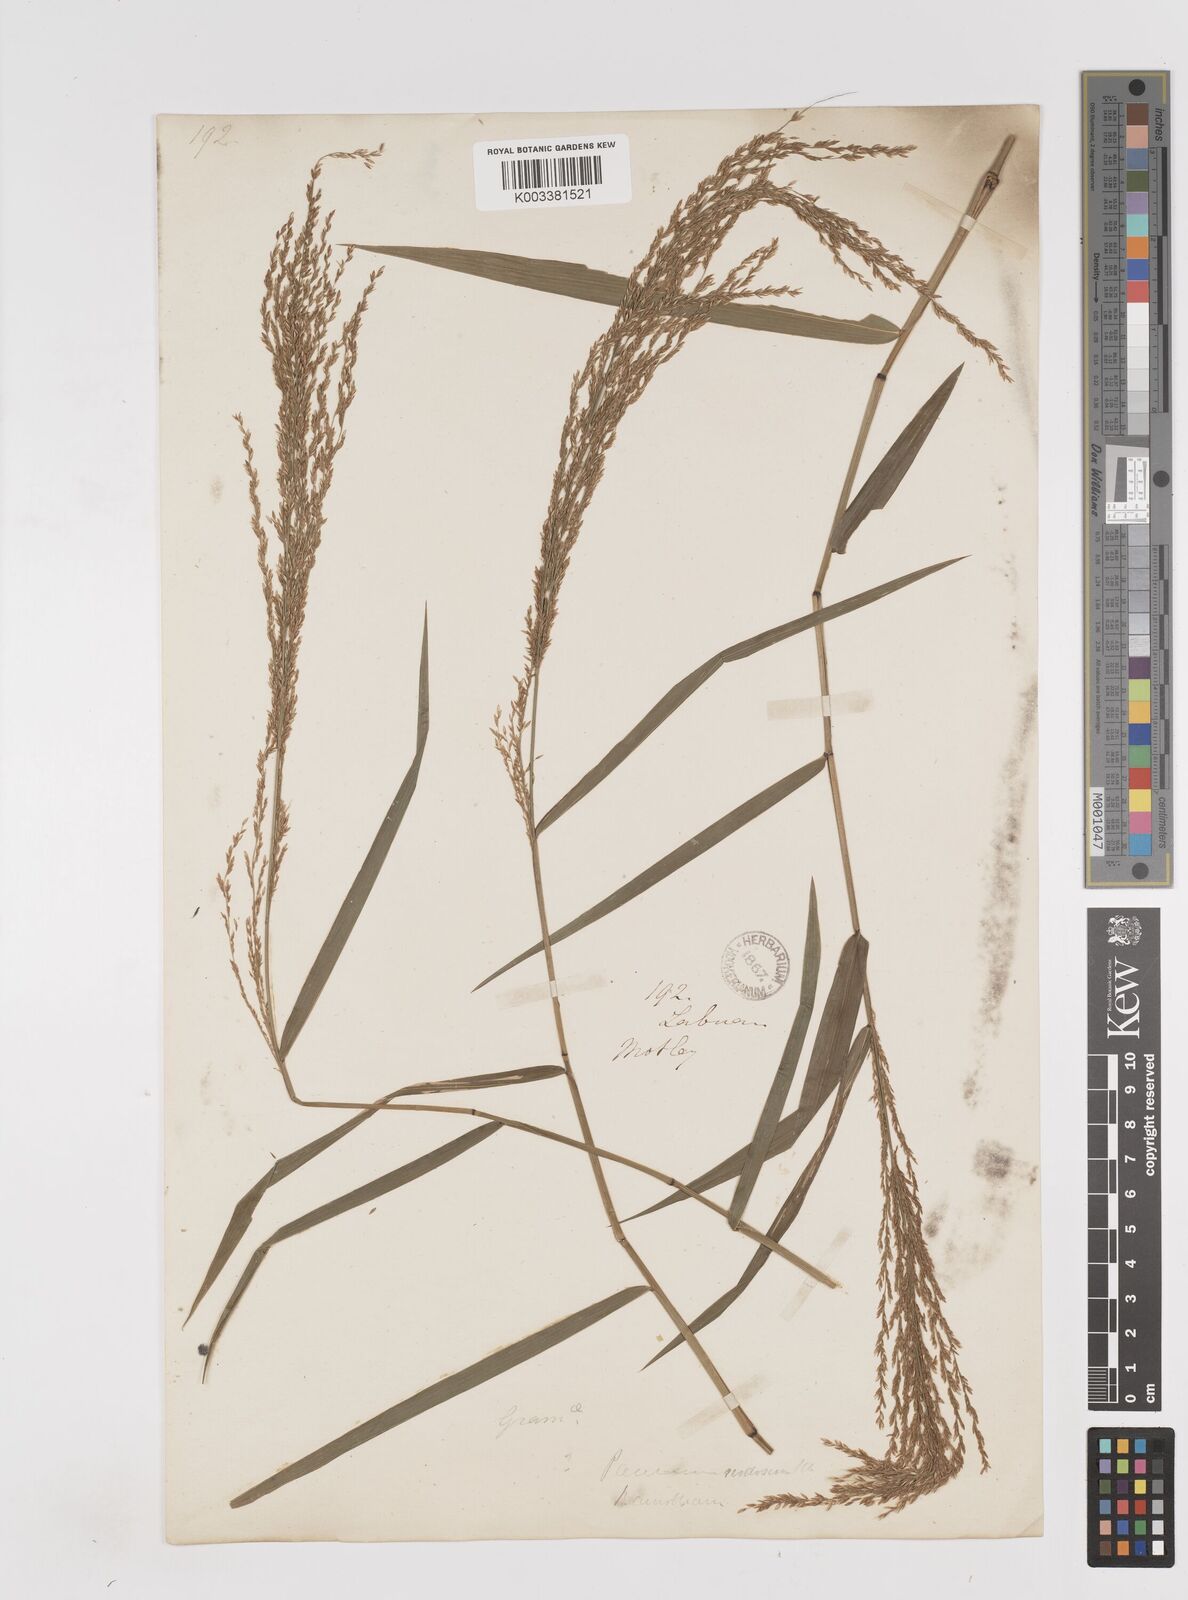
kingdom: Plantae
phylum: Tracheophyta
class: Liliopsida
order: Poales
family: Poaceae
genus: Ottochloa
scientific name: Ottochloa nodosa
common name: Slender-panic grass
